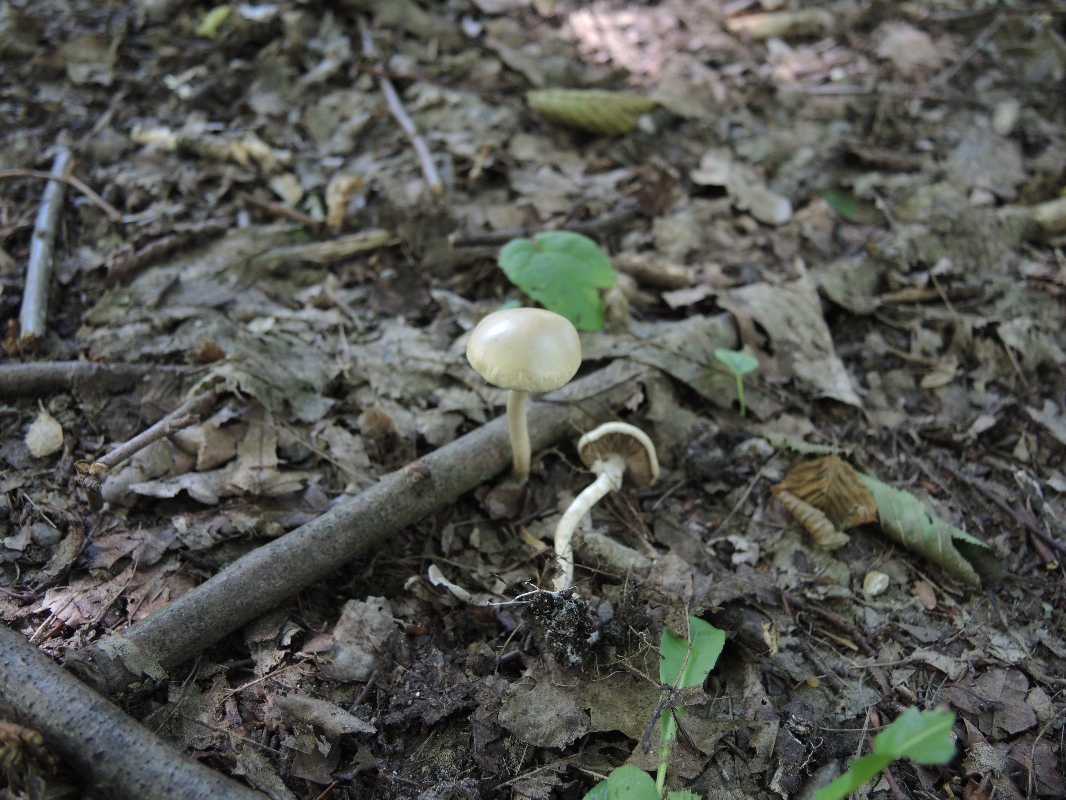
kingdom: Fungi
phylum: Basidiomycota
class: Agaricomycetes
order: Agaricales
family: Strophariaceae
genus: Agrocybe
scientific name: Agrocybe praecox
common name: tidlig agerhat
